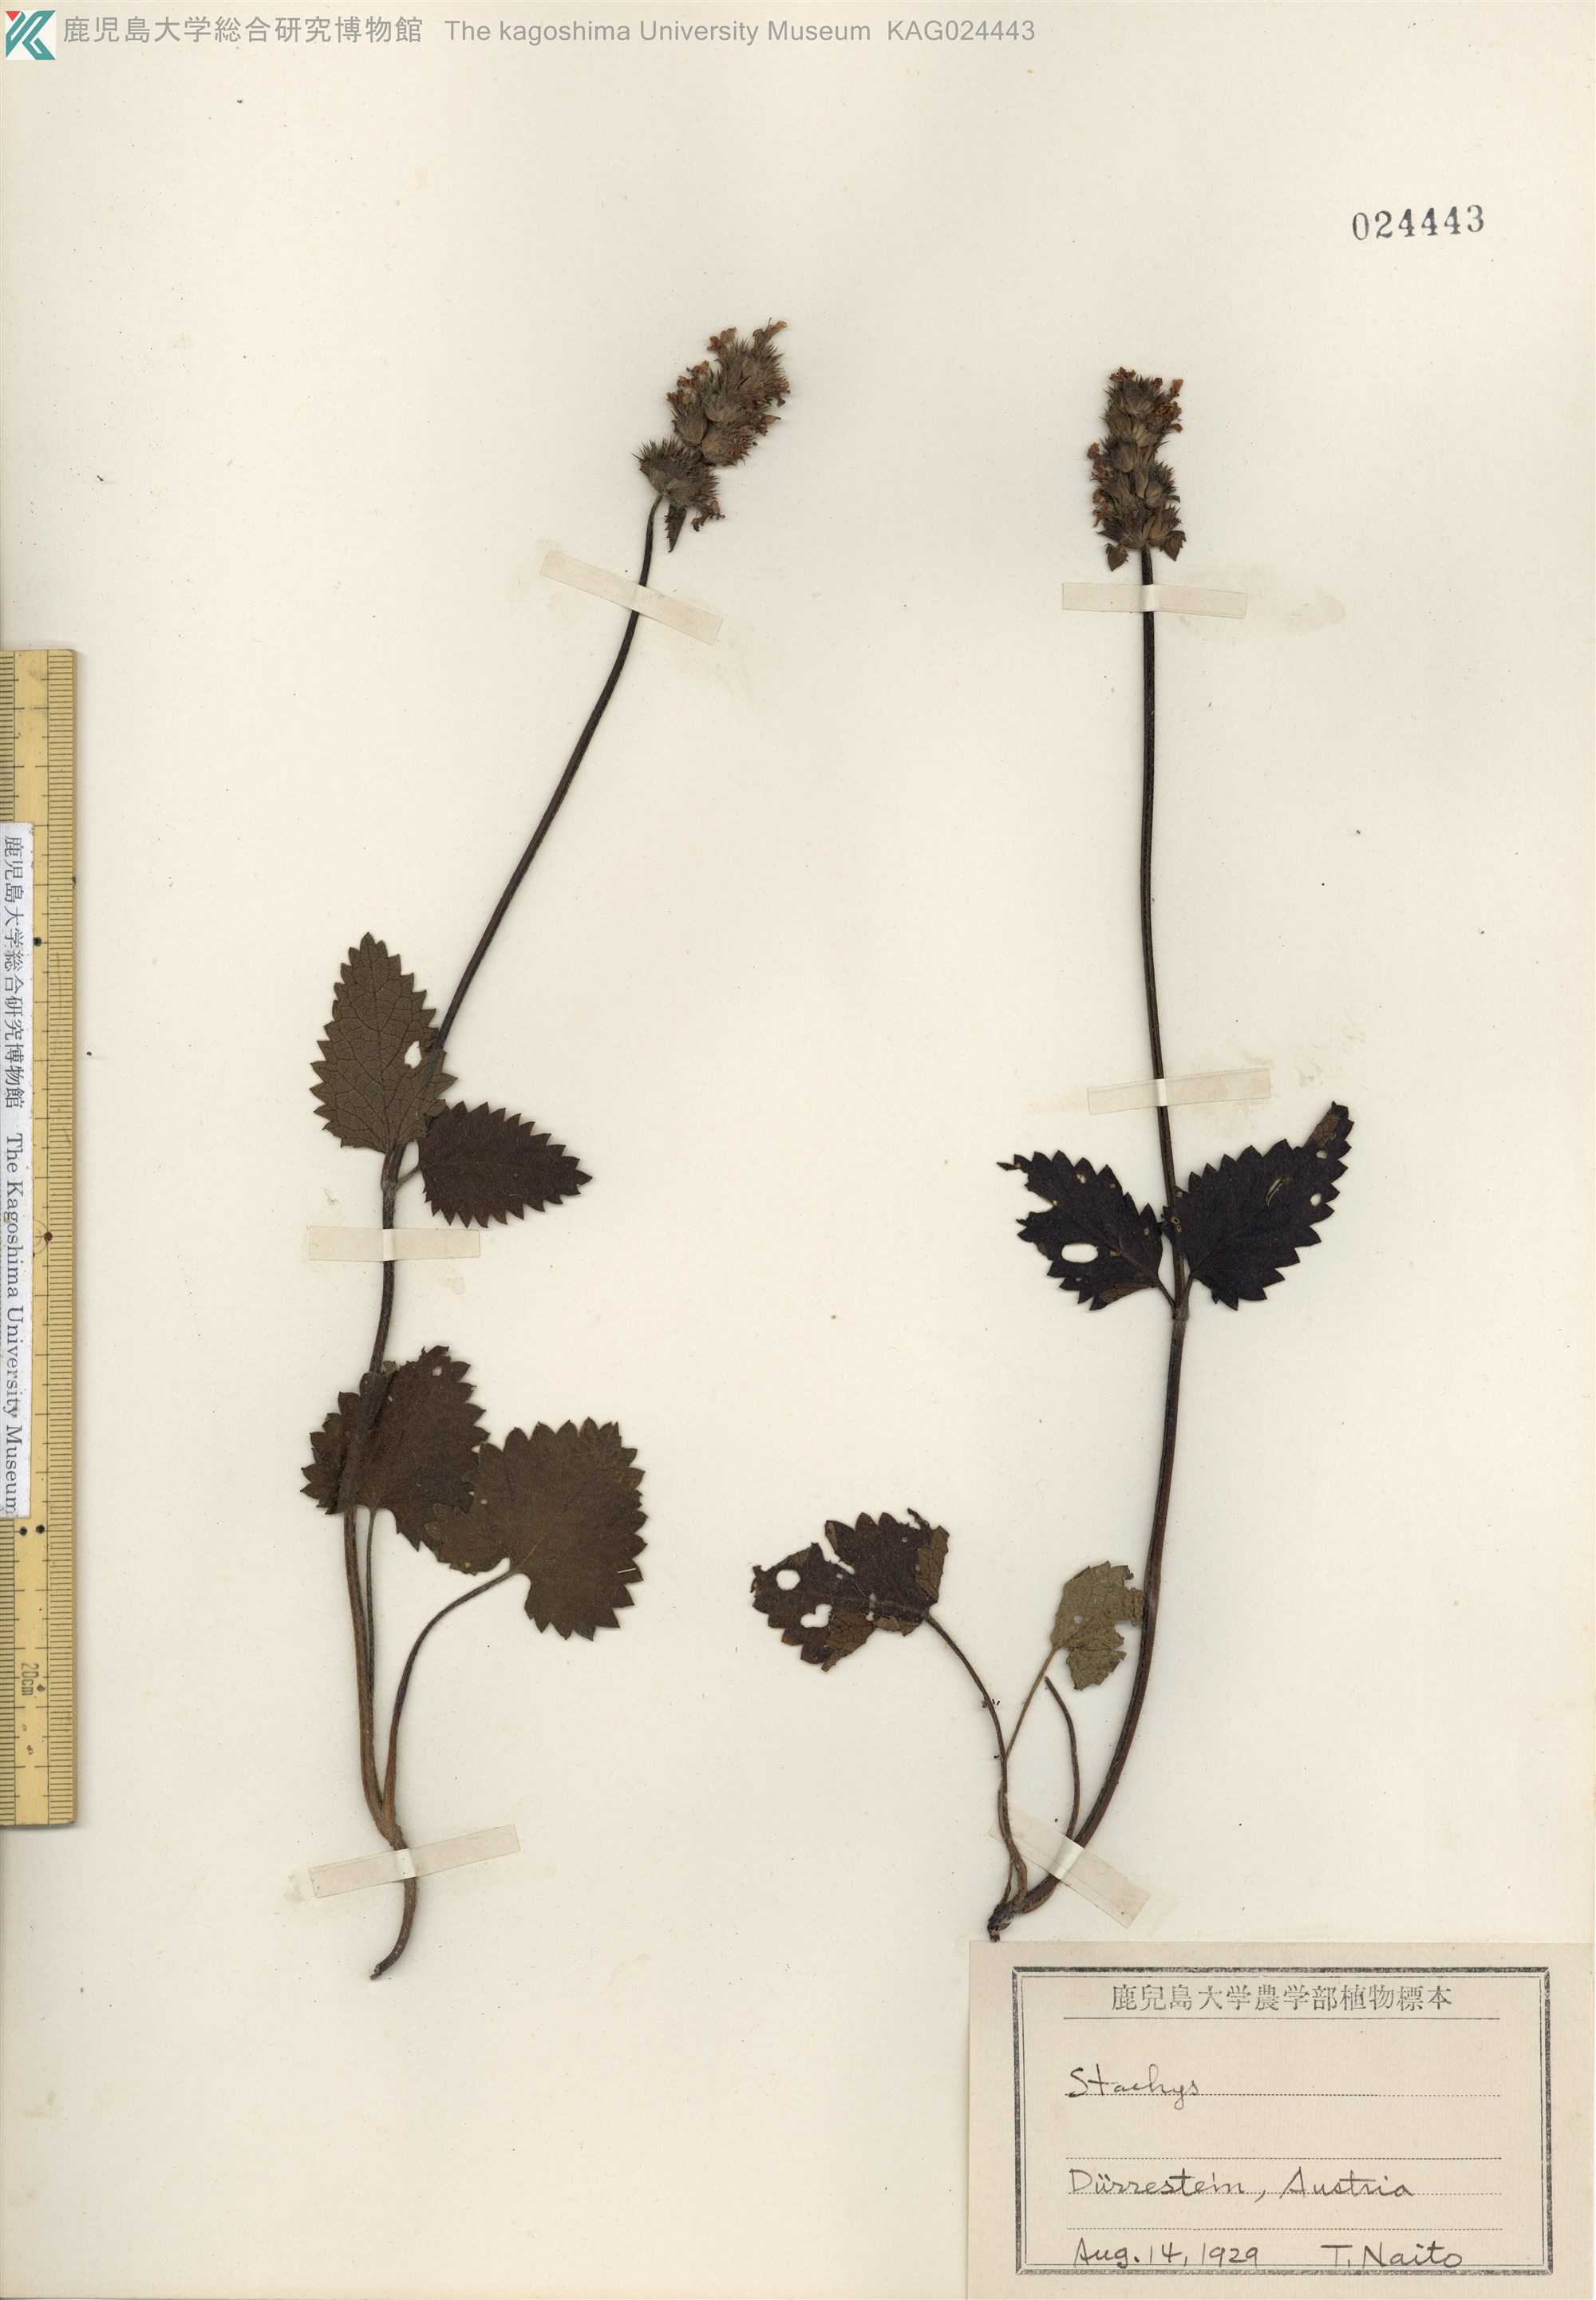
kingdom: Plantae
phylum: Tracheophyta
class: Magnoliopsida
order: Lamiales
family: Lamiaceae
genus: Stachys
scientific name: Stachys
